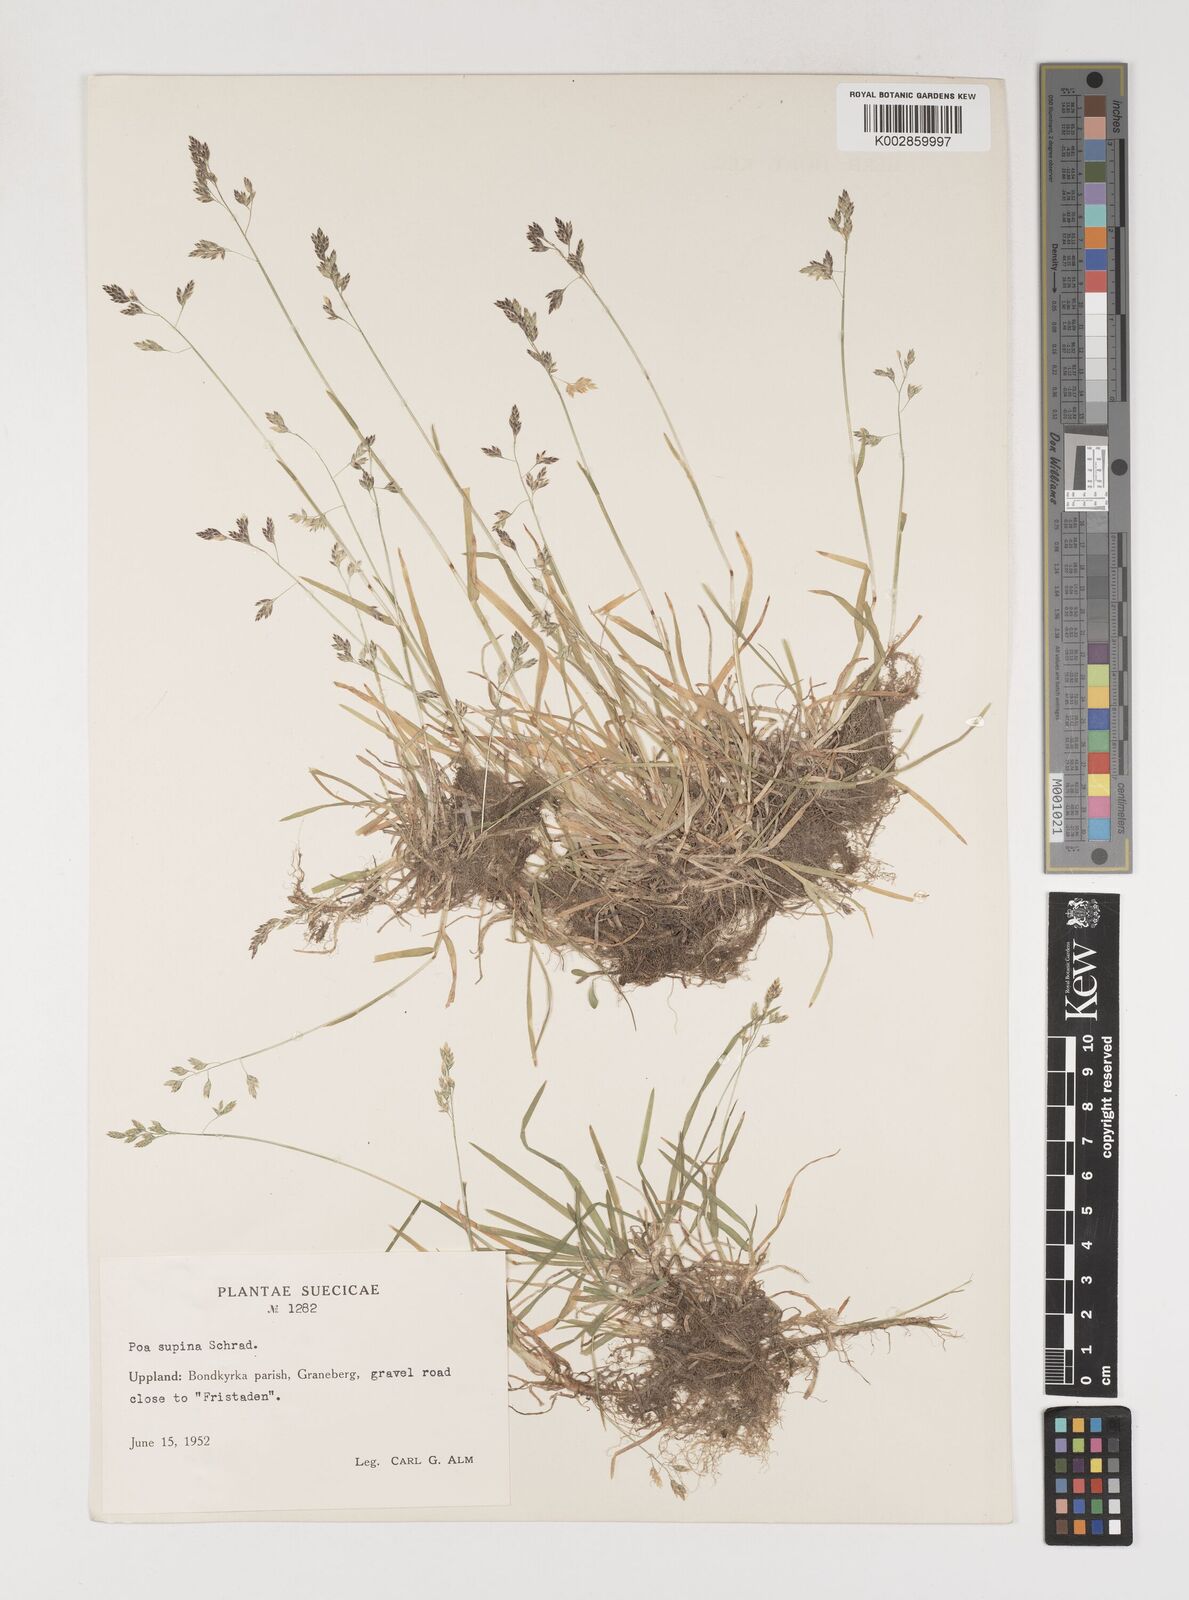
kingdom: Plantae
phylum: Tracheophyta
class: Liliopsida
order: Poales
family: Poaceae
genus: Poa
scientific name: Poa supina
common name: Supina bluegrass
